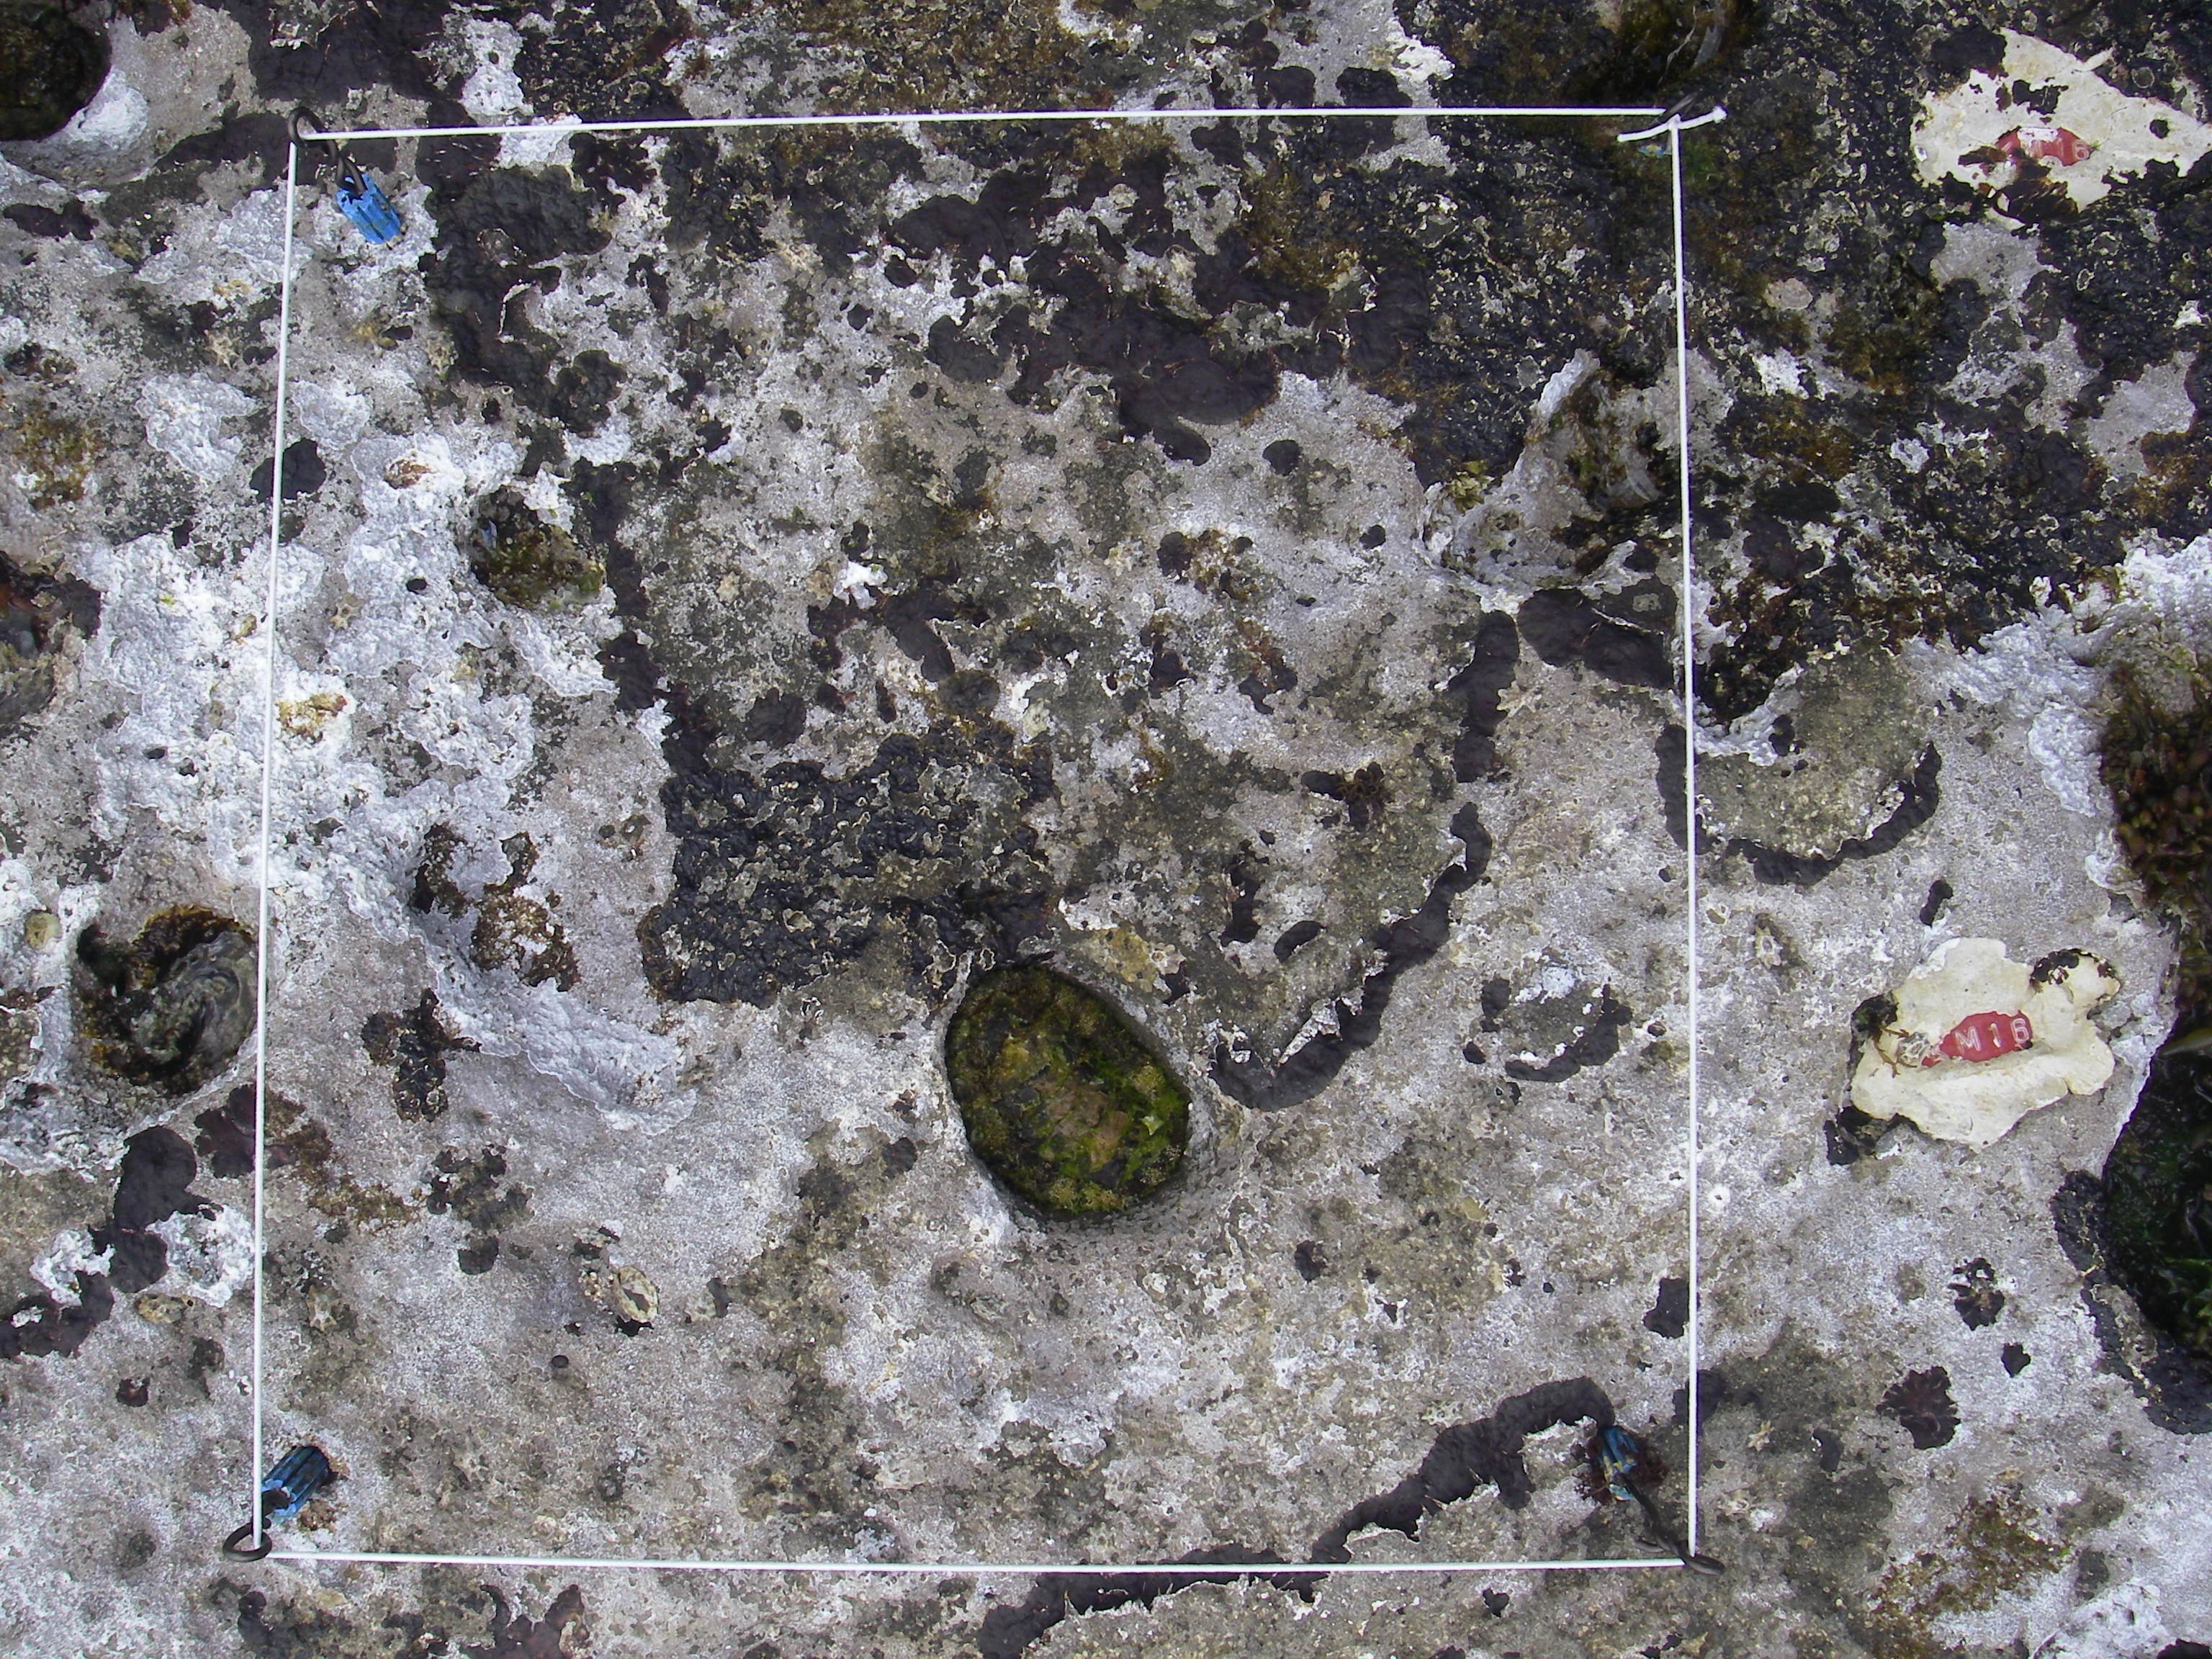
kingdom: Chromista
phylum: Ochrophyta
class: Phaeophyceae
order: Fucales
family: Sargassaceae
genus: Sargassum
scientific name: Sargassum fusiforme
